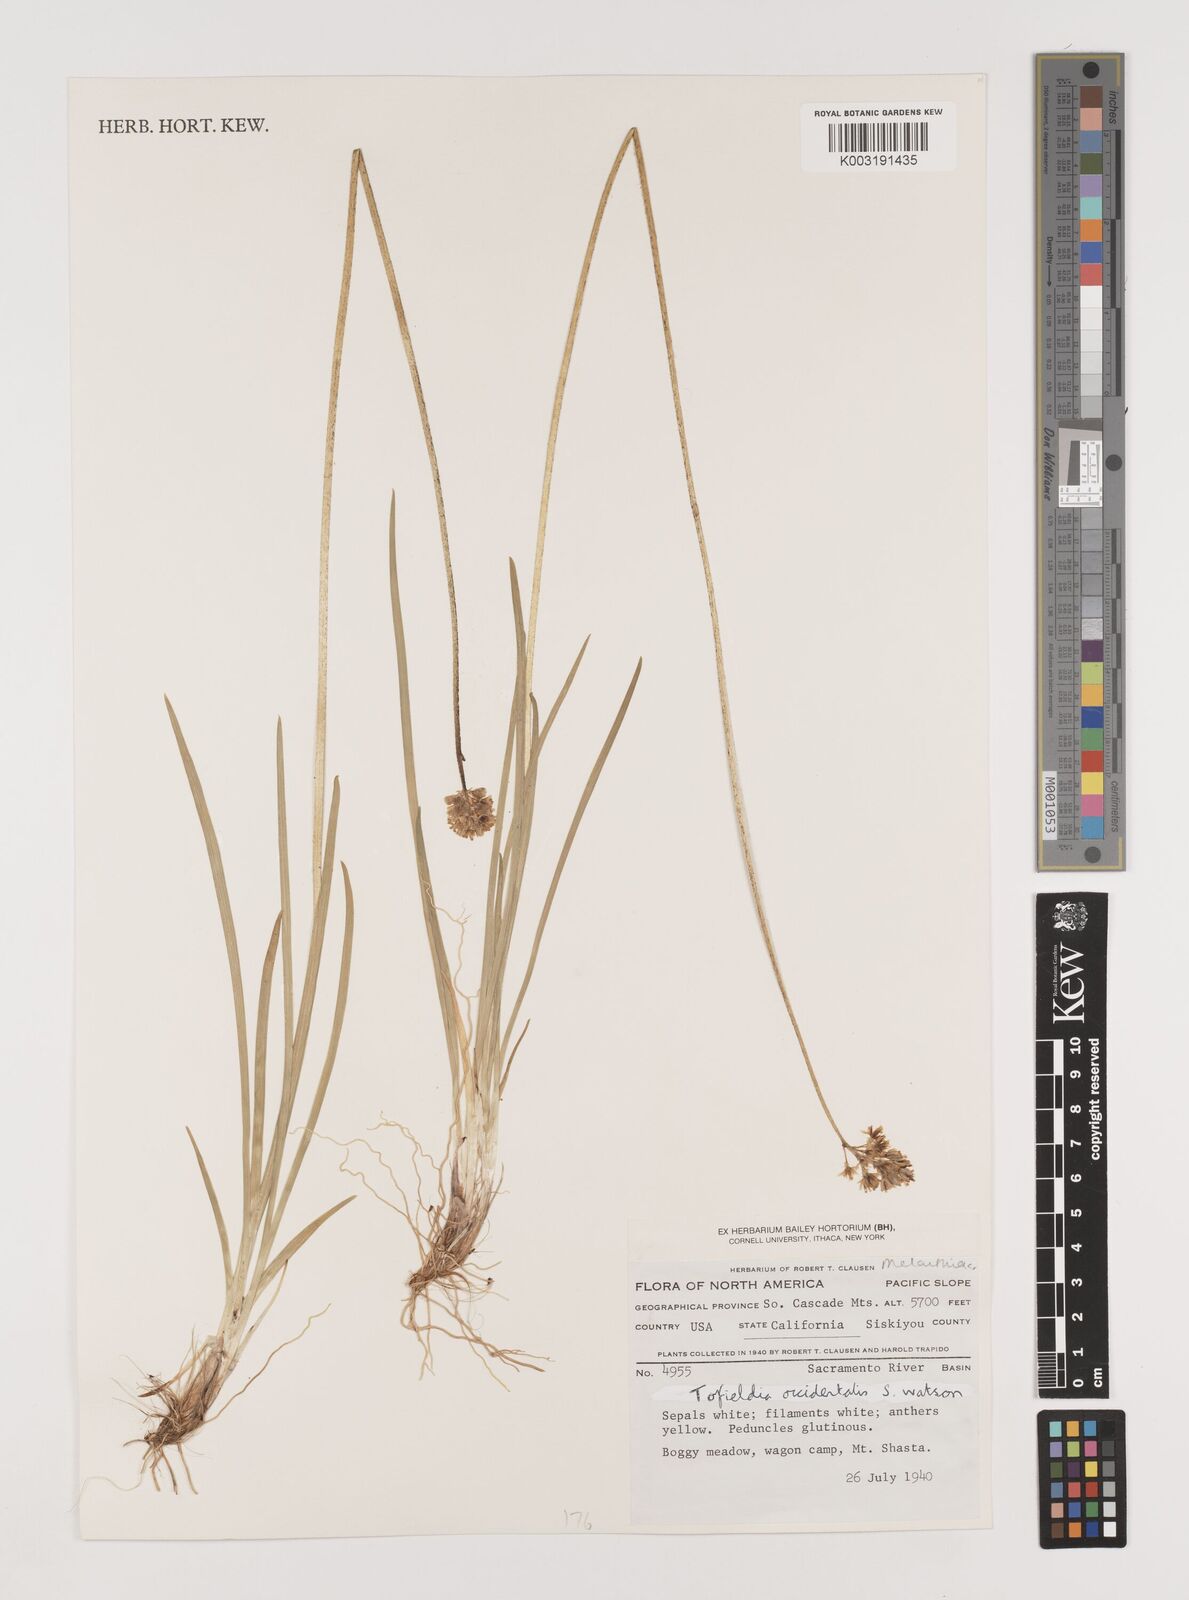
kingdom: Plantae
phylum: Tracheophyta
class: Liliopsida
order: Alismatales
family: Tofieldiaceae
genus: Triantha
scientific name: Triantha occidentalis
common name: Western false asphodel
